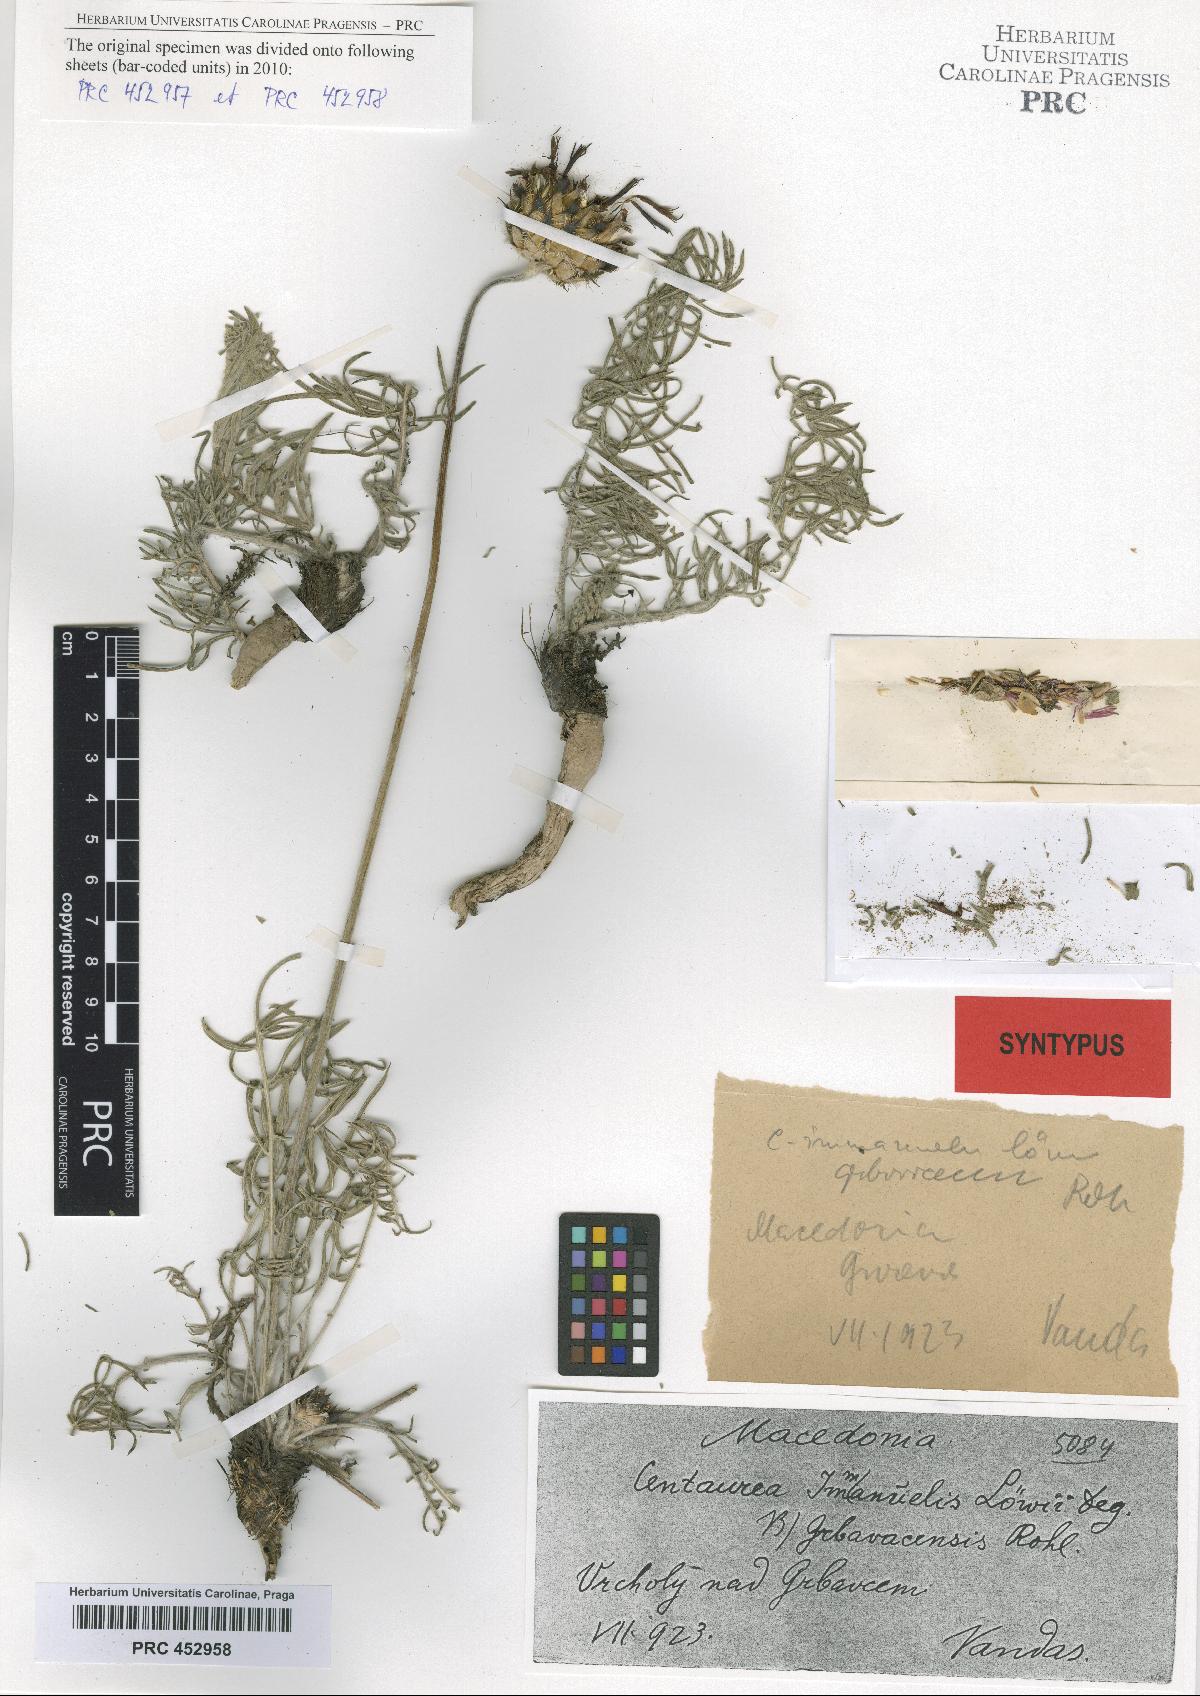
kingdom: Plantae
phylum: Tracheophyta
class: Magnoliopsida
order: Asterales
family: Asteraceae
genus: Centaurea
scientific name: Centaurea grbavacensis
